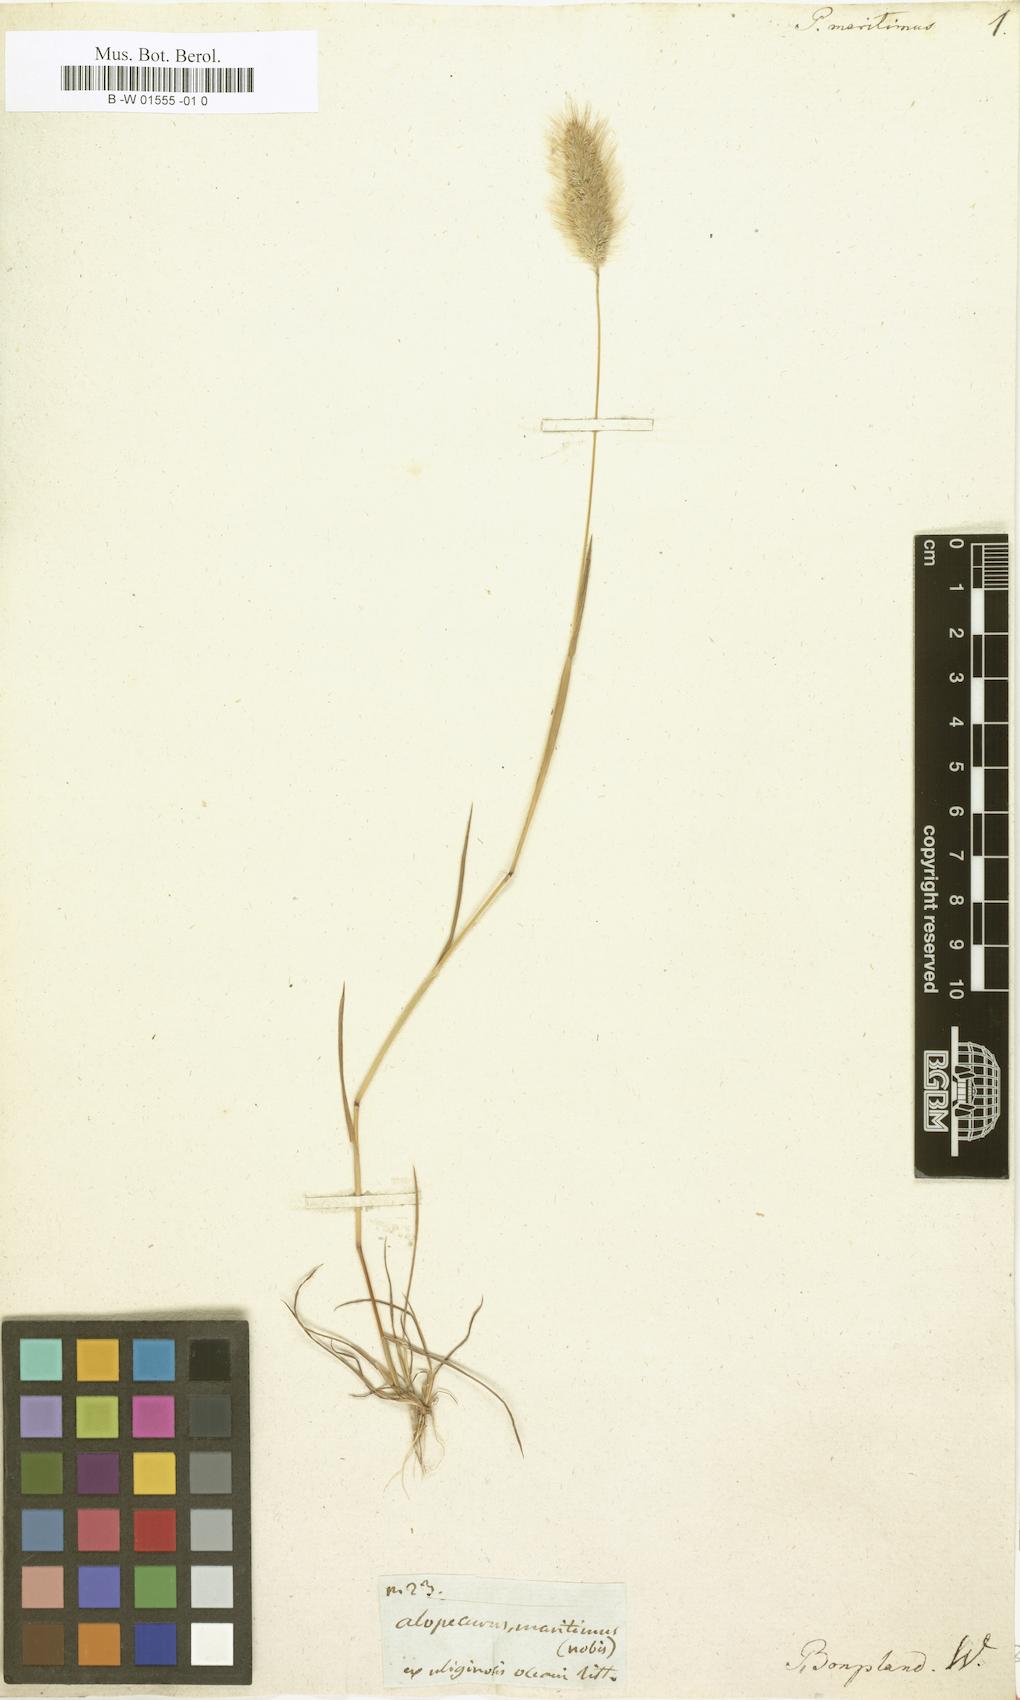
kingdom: Plantae
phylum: Tracheophyta
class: Liliopsida
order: Poales
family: Poaceae
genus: Polypogon
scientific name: Polypogon maritimus
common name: Mediterranean rabbitsfoot grass
